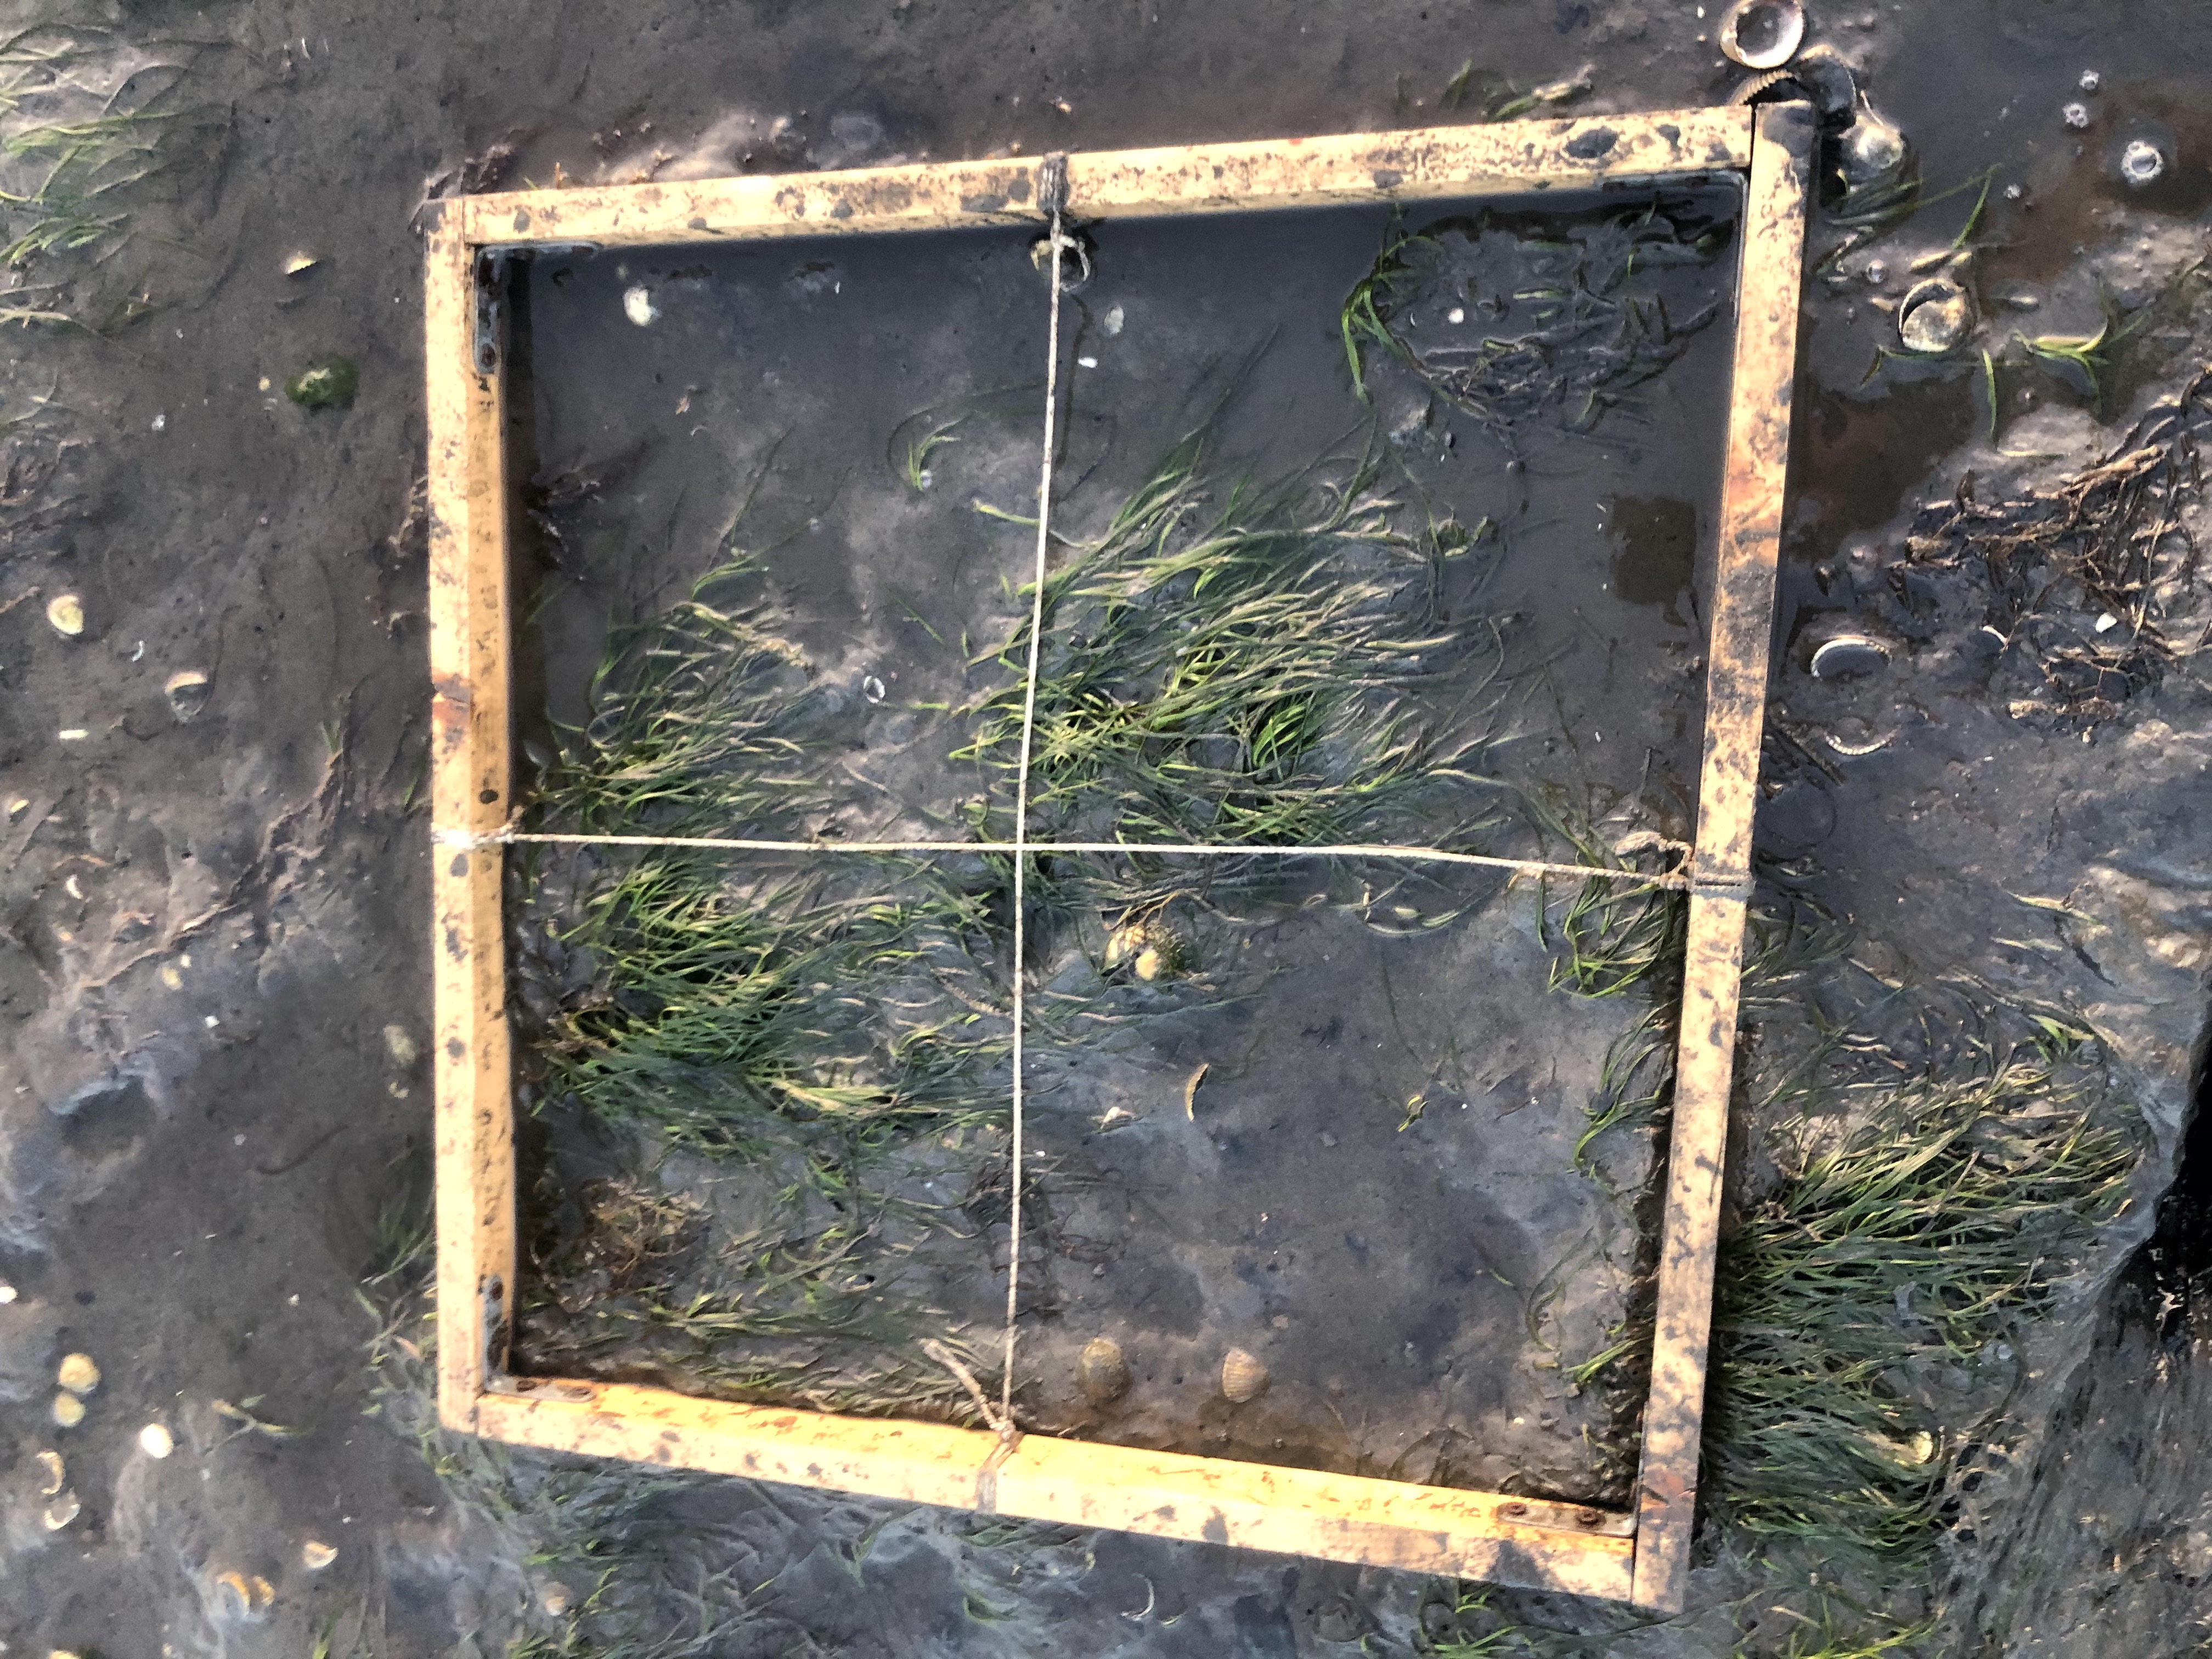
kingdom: Plantae
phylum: Rhodophyta
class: Florideophyceae
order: Gracilariales
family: Gracilariaceae
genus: Gracilaria
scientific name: Gracilaria vermiculophylla
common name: Algae
